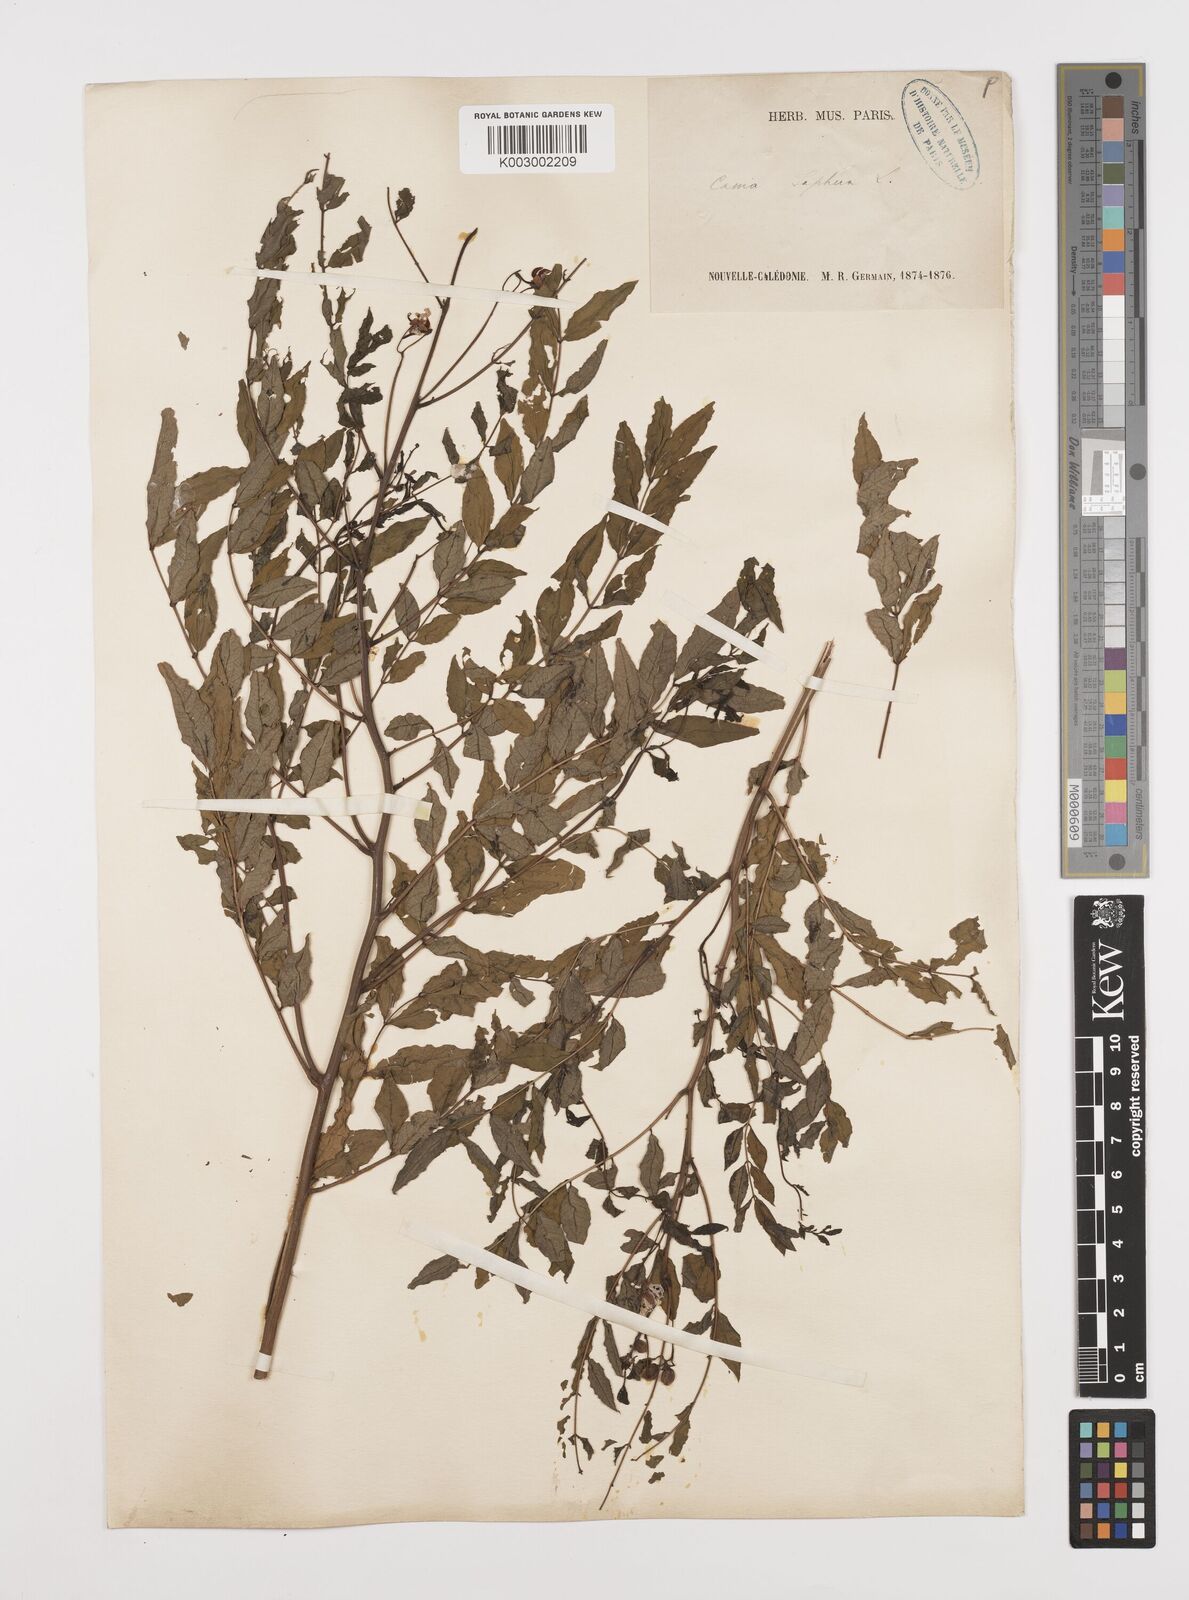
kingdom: Plantae
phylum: Tracheophyta
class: Magnoliopsida
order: Fabales
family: Fabaceae
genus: Senna
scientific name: Senna sophera
